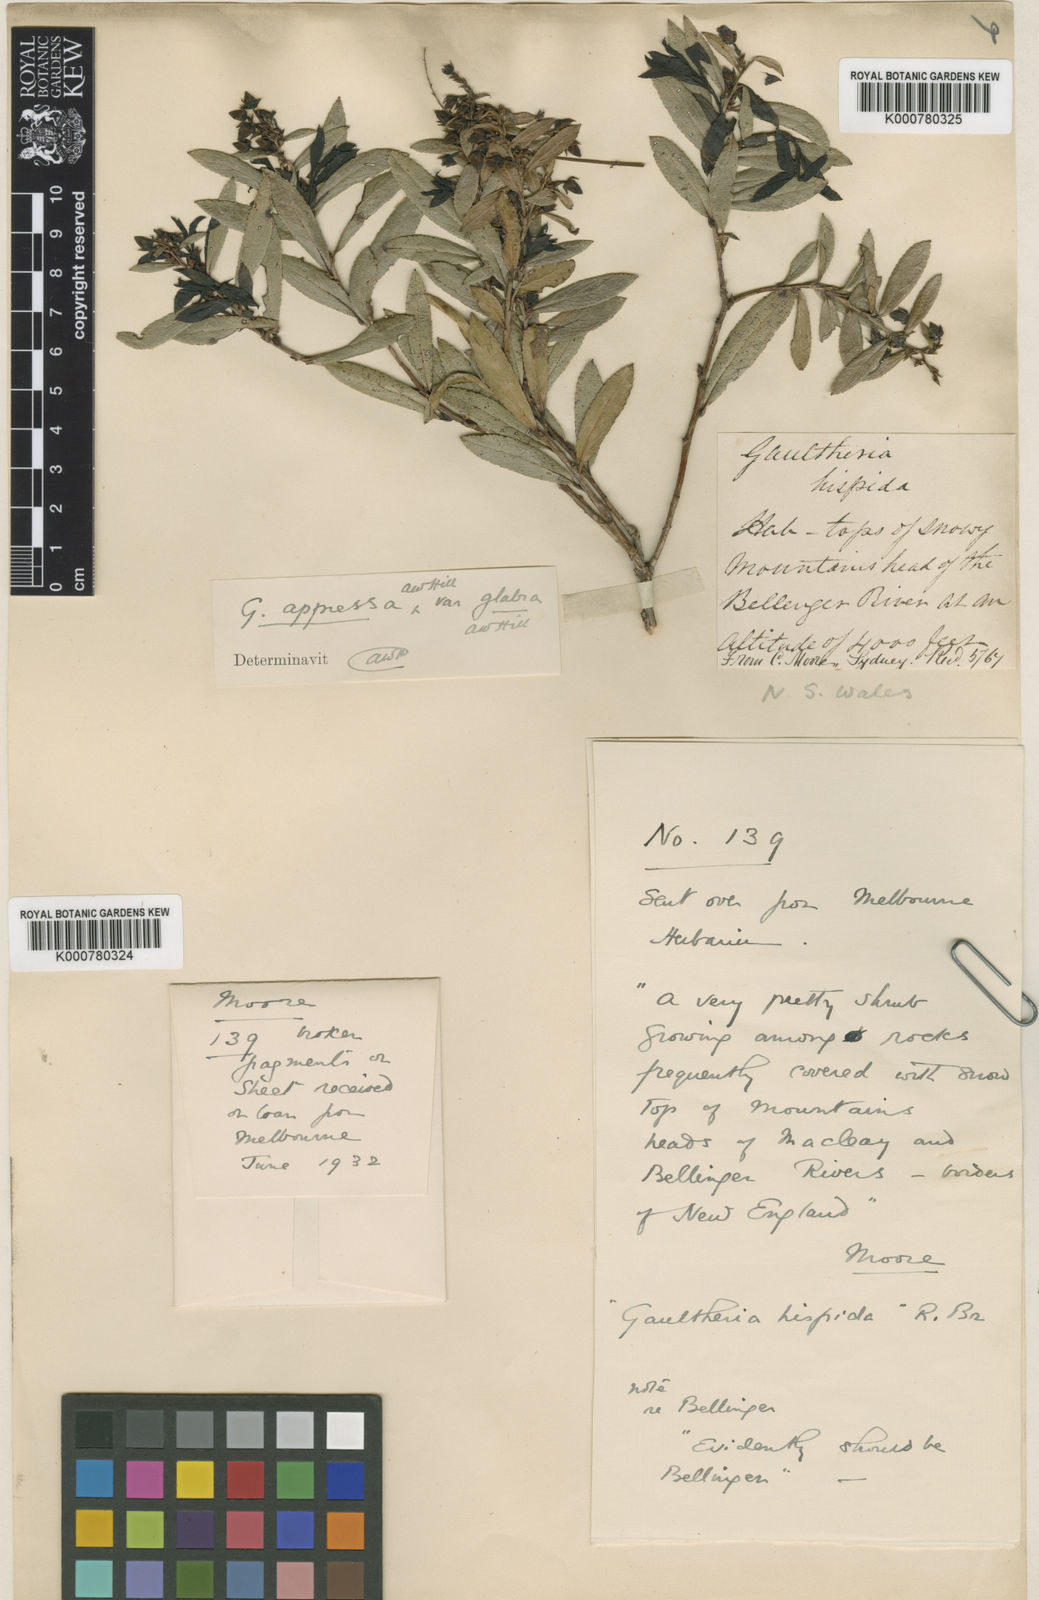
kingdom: Plantae
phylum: Tracheophyta
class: Magnoliopsida
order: Ericales
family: Ericaceae
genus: Gaultheria
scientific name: Gaultheria viridicarpa
